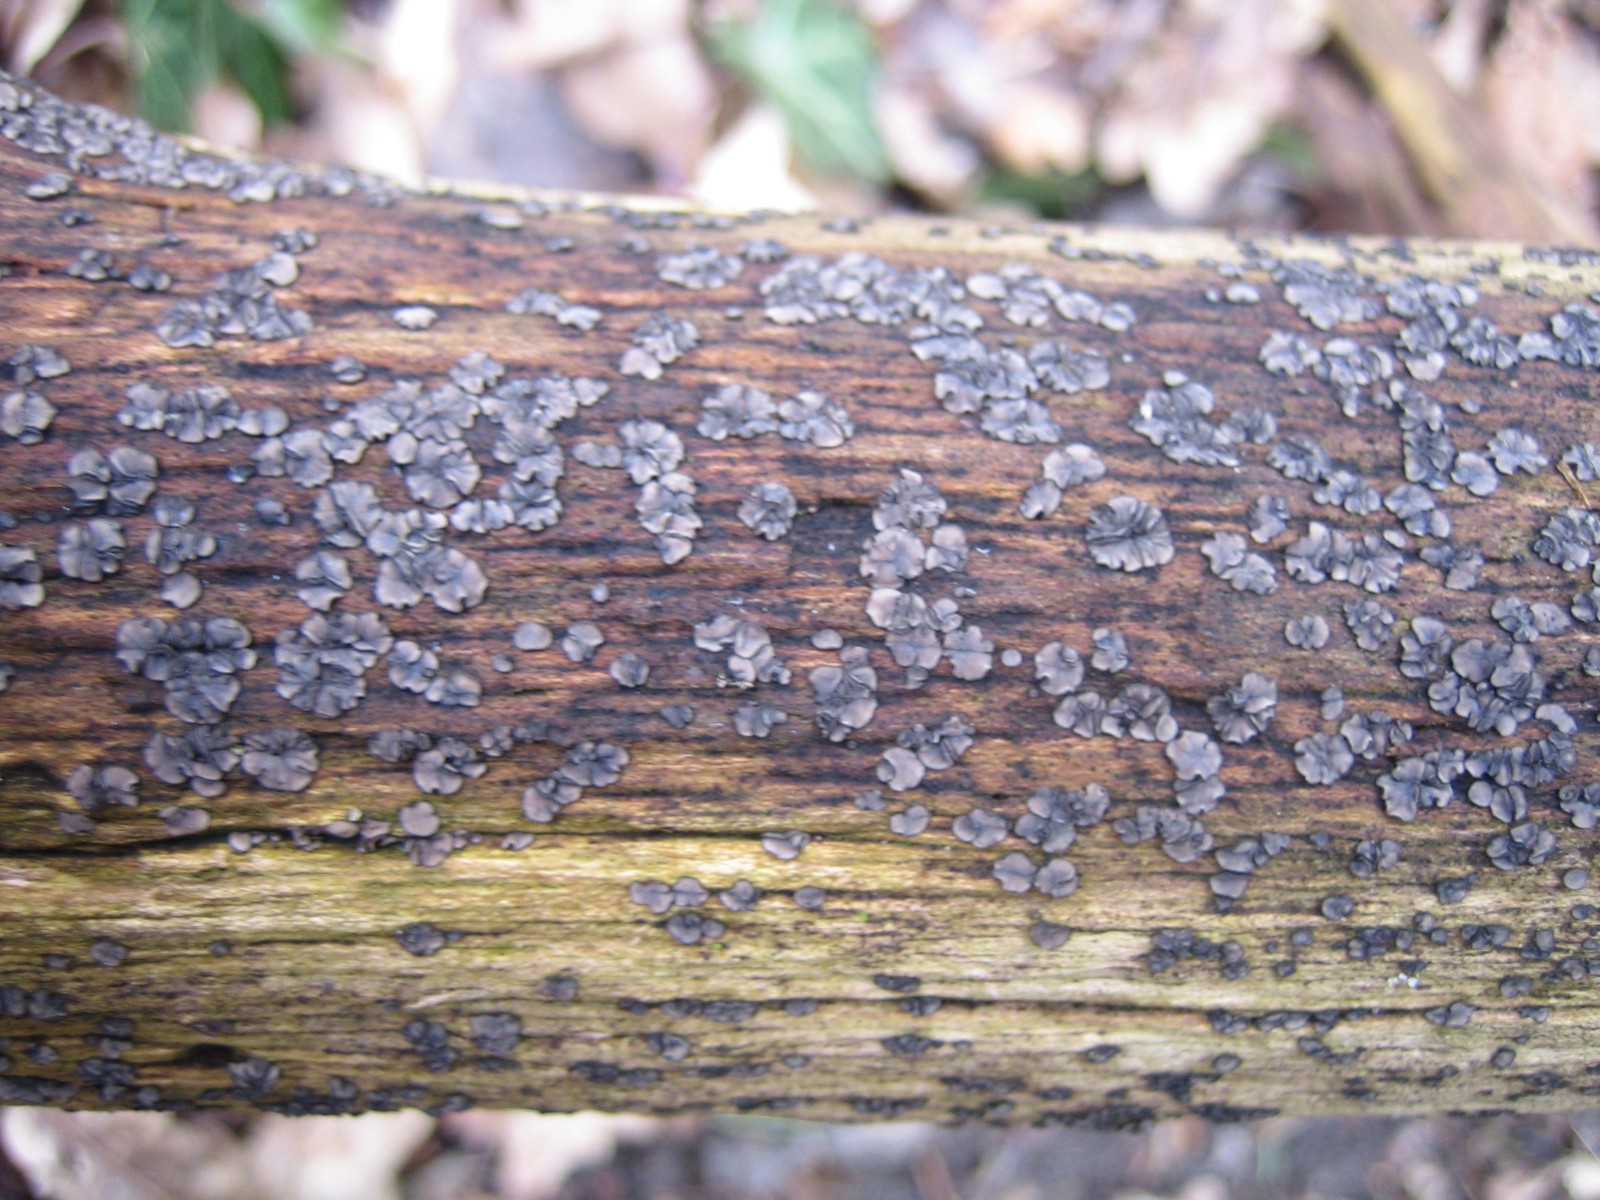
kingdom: Fungi
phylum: Ascomycota
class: Leotiomycetes
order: Helotiales
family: Mollisiaceae
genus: Mollisia
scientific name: Mollisia
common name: gråskive
